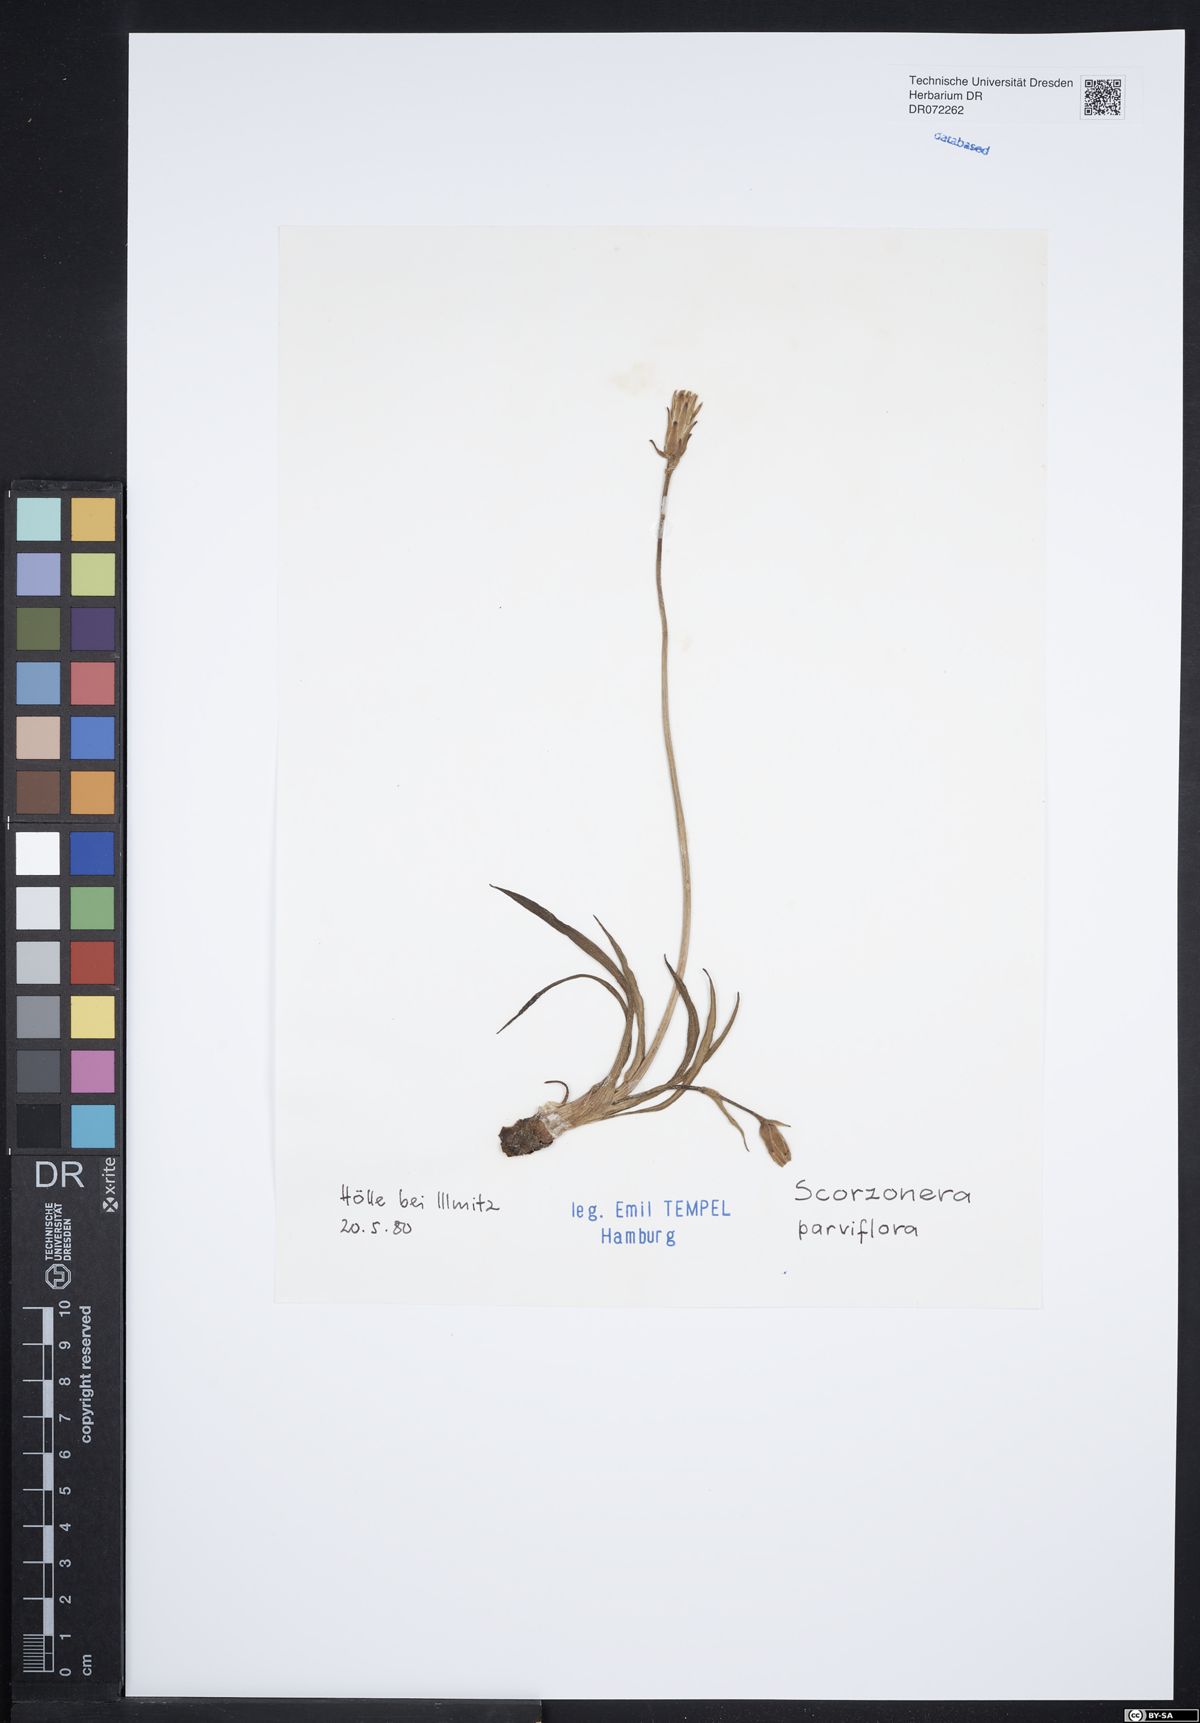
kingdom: Plantae
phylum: Tracheophyta
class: Magnoliopsida
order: Asterales
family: Asteraceae
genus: Scorzonera
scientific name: Scorzonera parviflora
